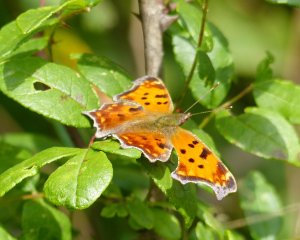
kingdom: Animalia
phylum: Arthropoda
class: Insecta
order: Lepidoptera
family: Nymphalidae
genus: Polygonia
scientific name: Polygonia comma
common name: Eastern Comma
